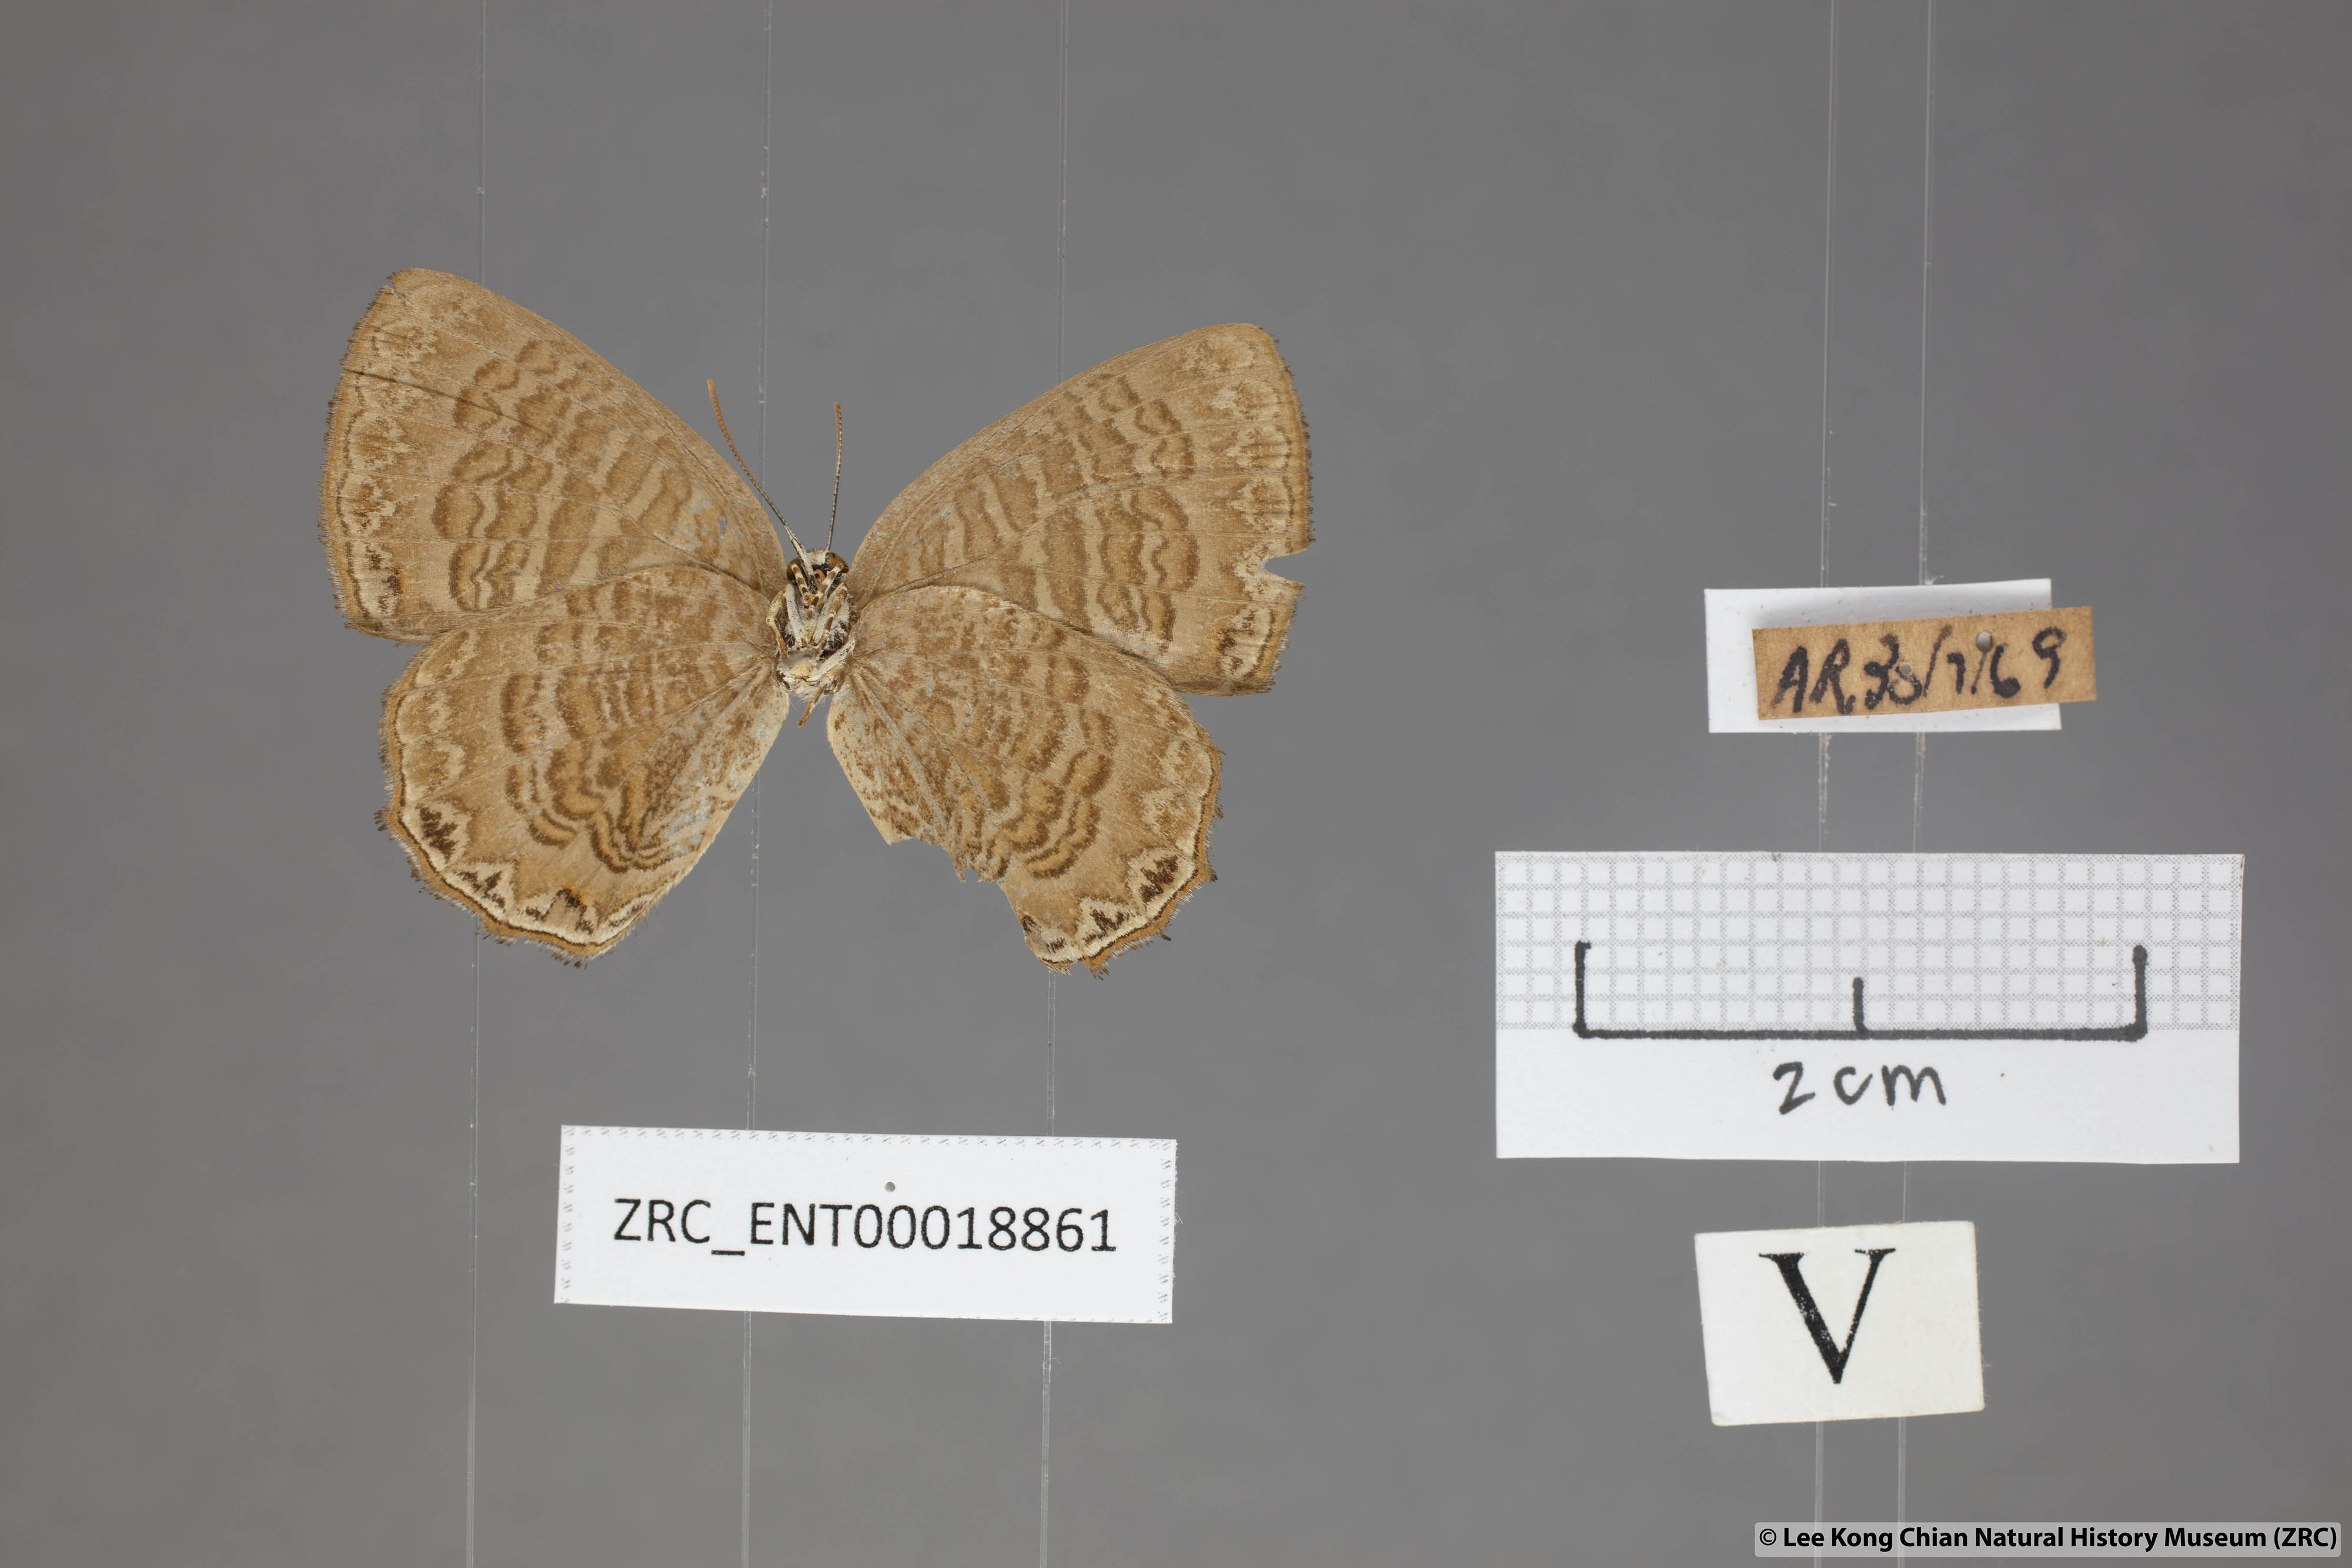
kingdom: Animalia
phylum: Arthropoda
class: Insecta
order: Lepidoptera
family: Lycaenidae
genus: Poritia
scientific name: Poritia sumatrae
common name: Sumatran gem
